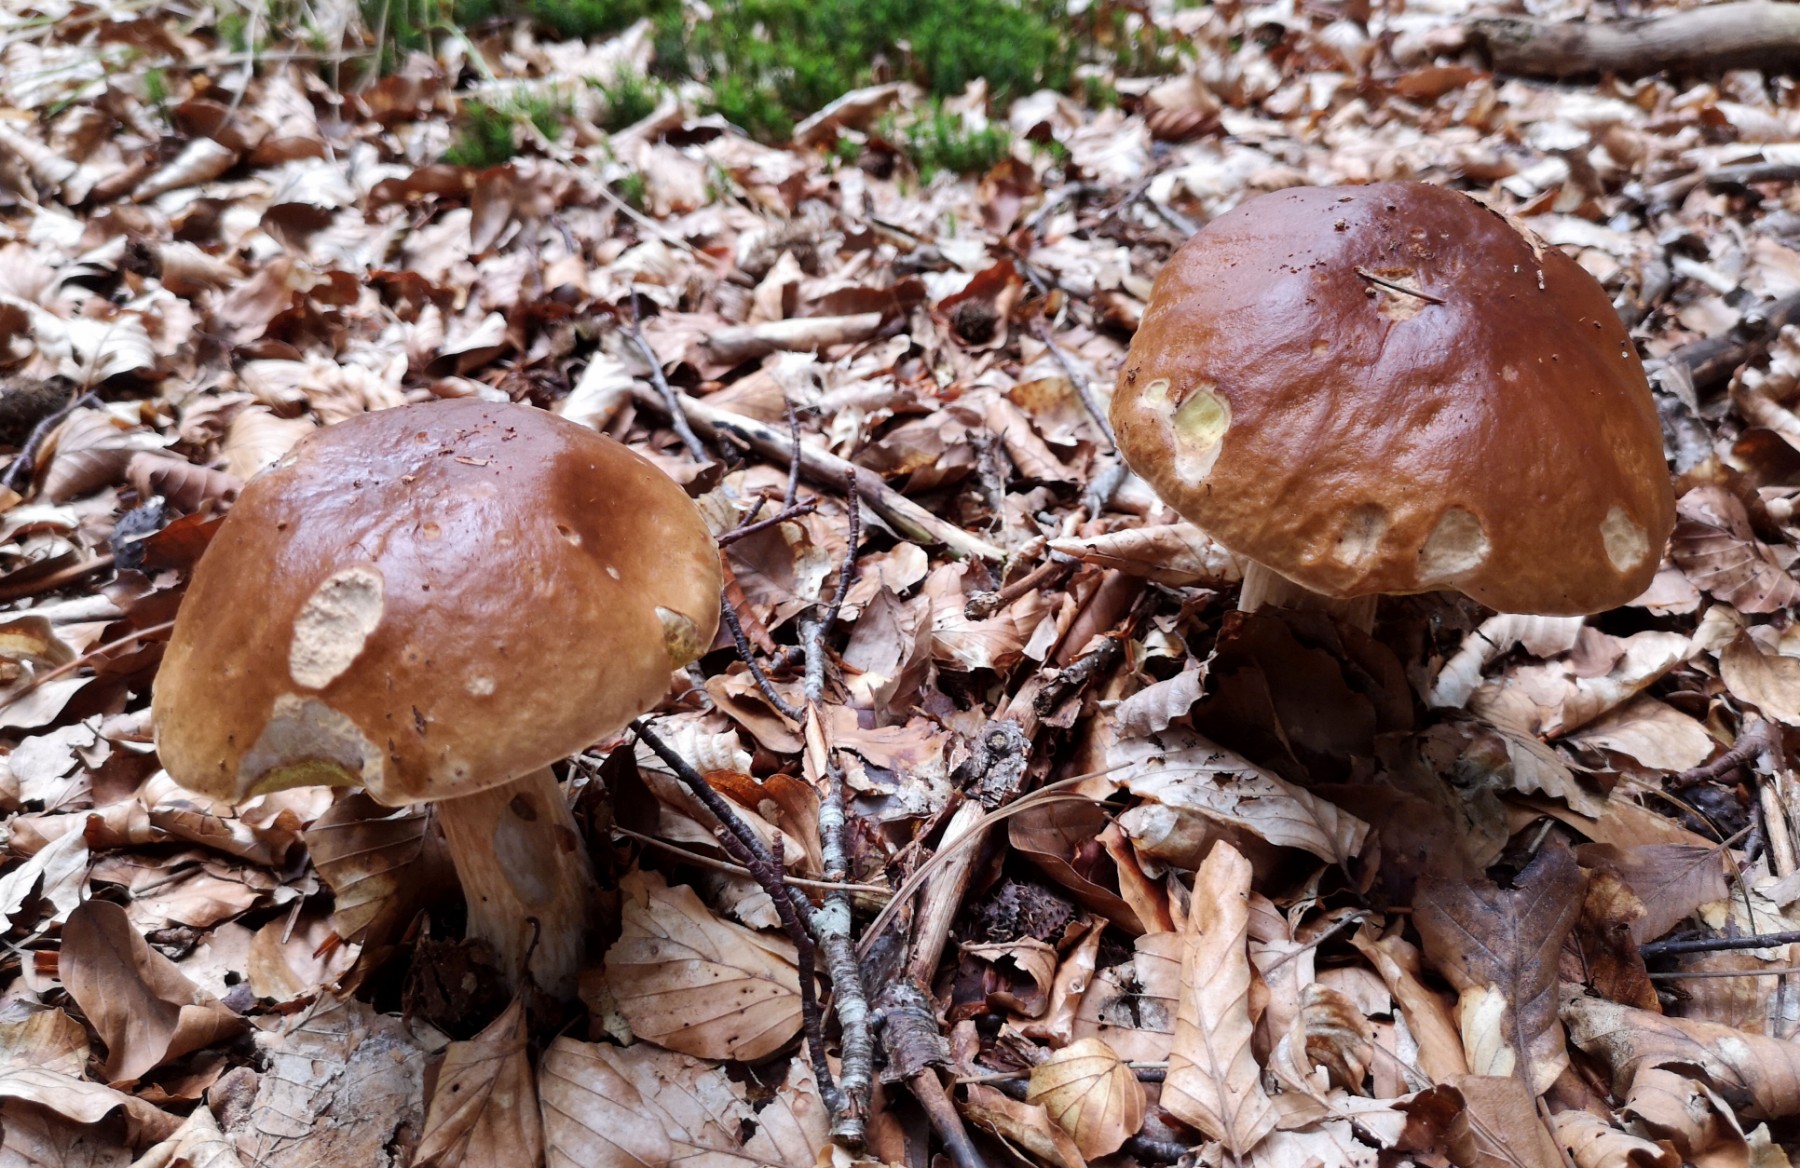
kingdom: Fungi
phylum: Basidiomycota
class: Agaricomycetes
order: Boletales
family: Boletaceae
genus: Boletus
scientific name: Boletus edulis
